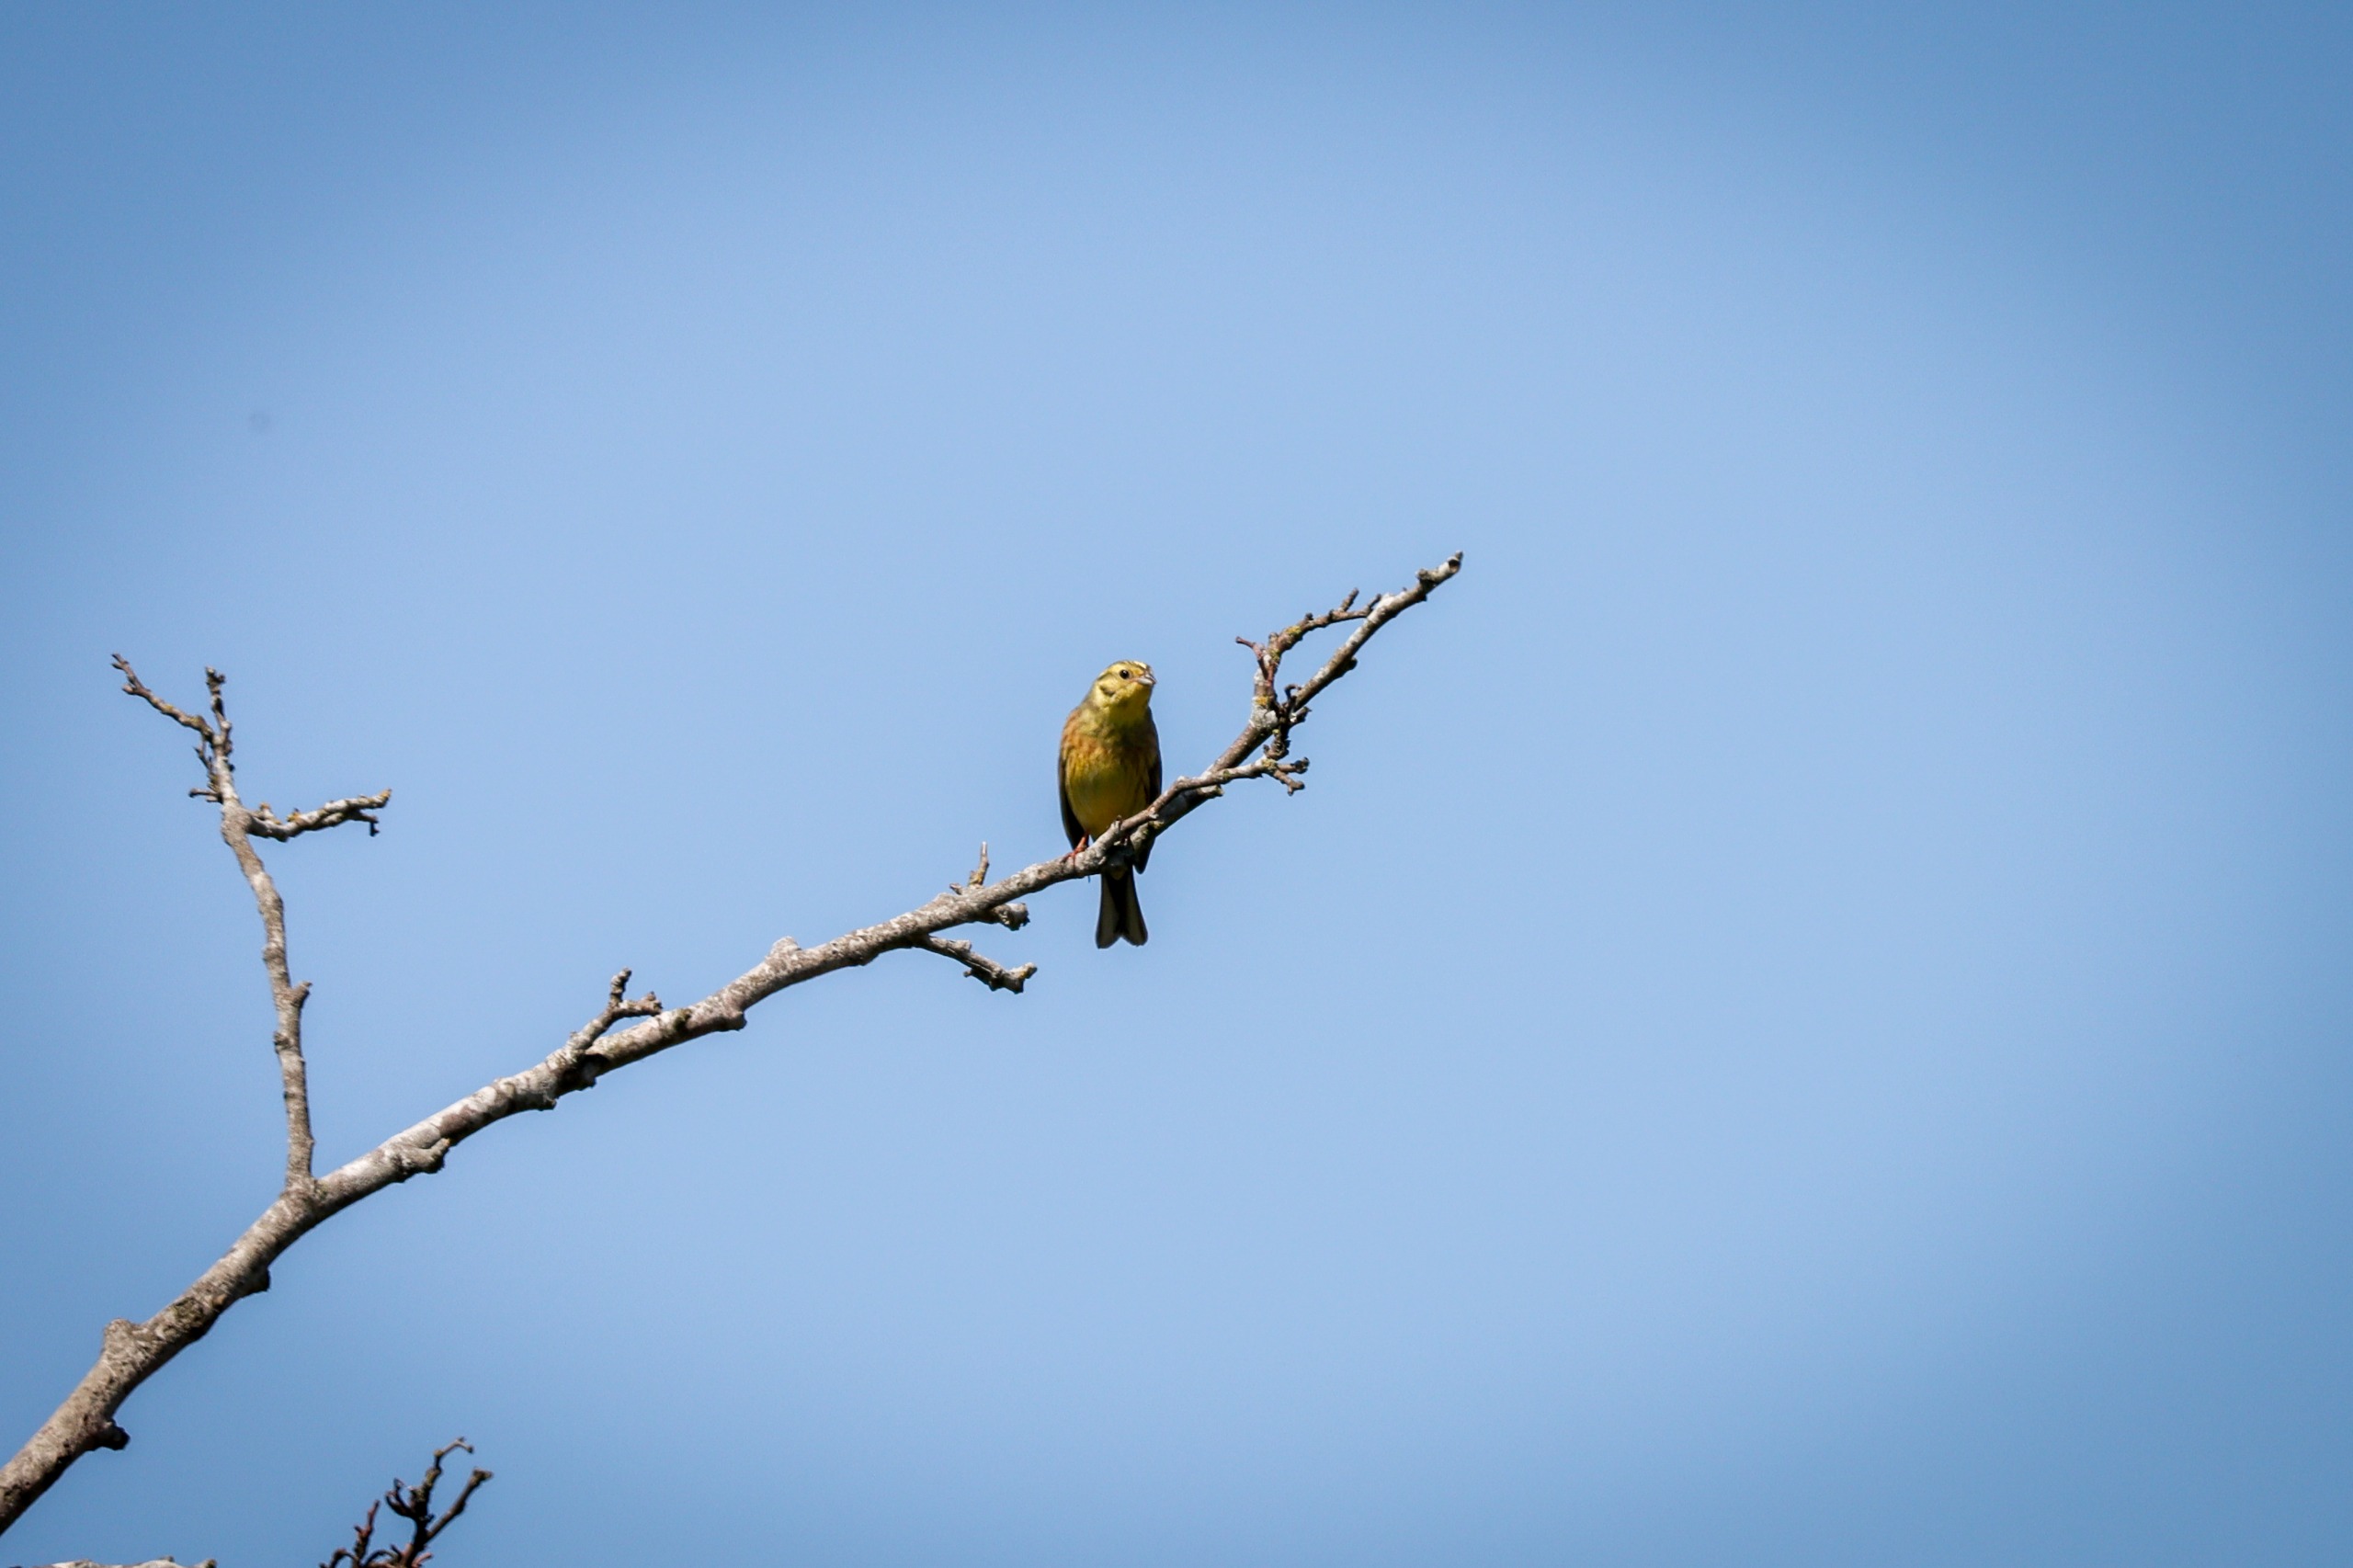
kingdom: Animalia
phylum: Chordata
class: Aves
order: Passeriformes
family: Emberizidae
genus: Emberiza
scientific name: Emberiza citrinella
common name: Gulspurv
